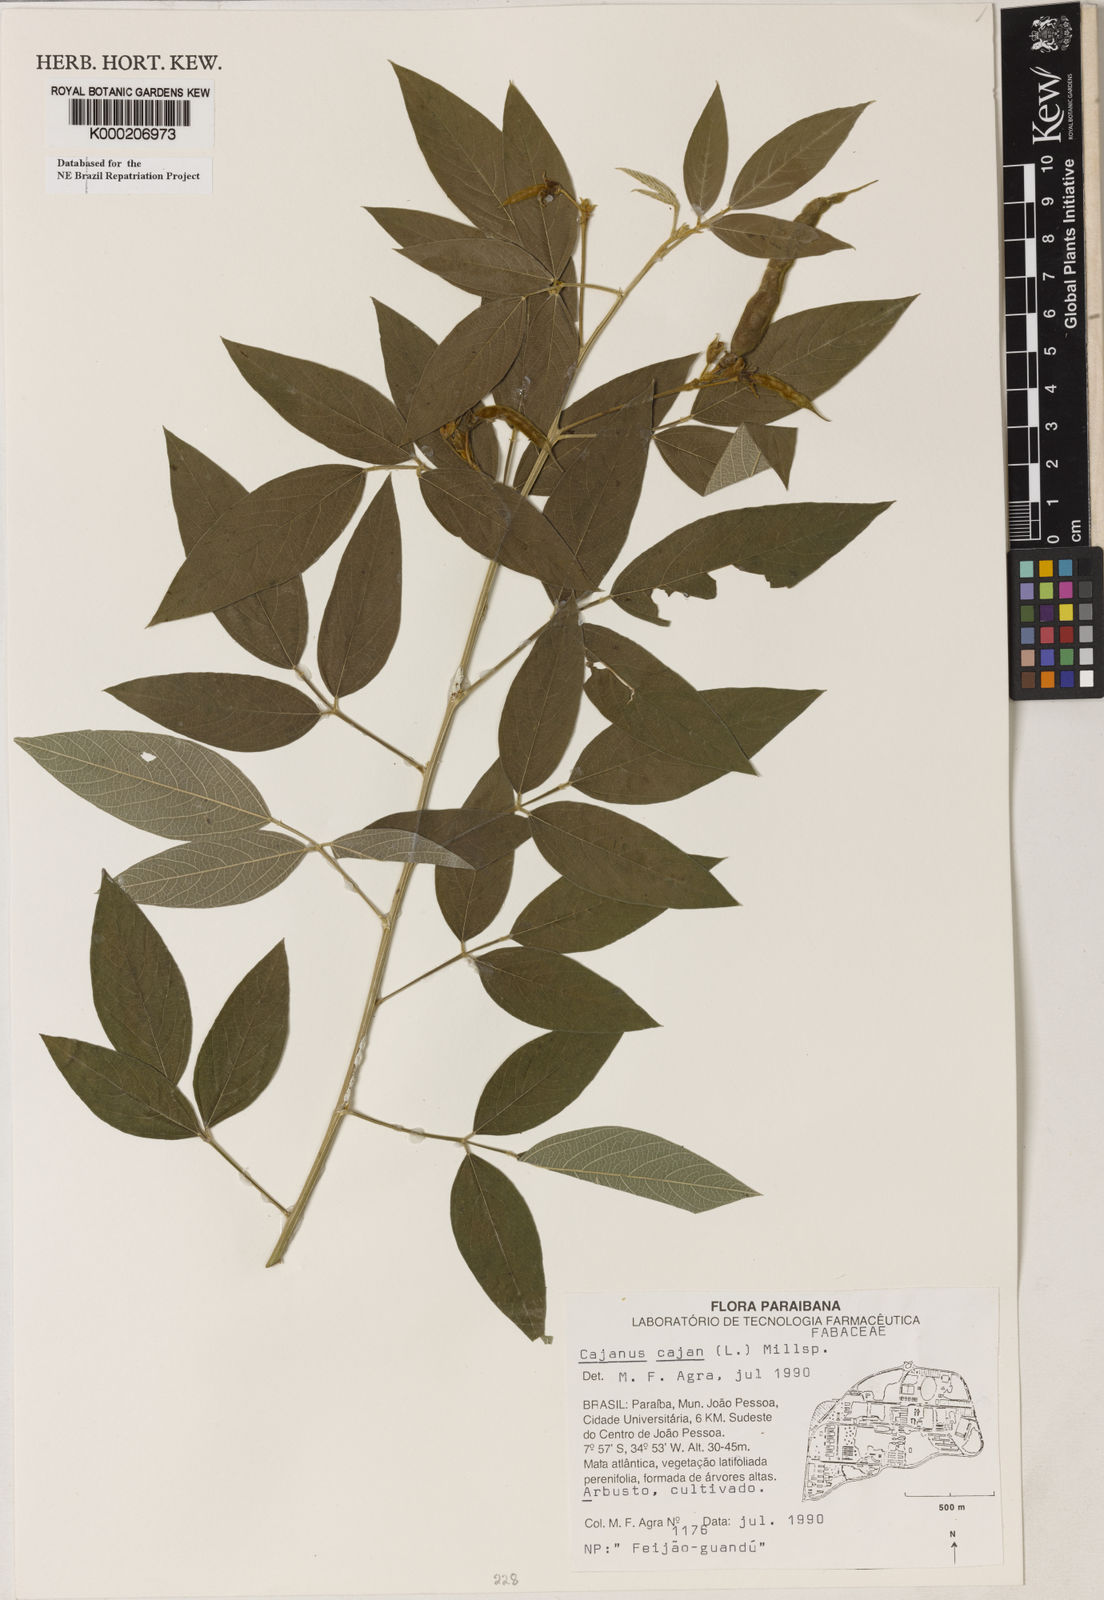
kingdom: Plantae
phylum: Tracheophyta
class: Magnoliopsida
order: Fabales
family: Fabaceae
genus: Cajanus
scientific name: Cajanus
